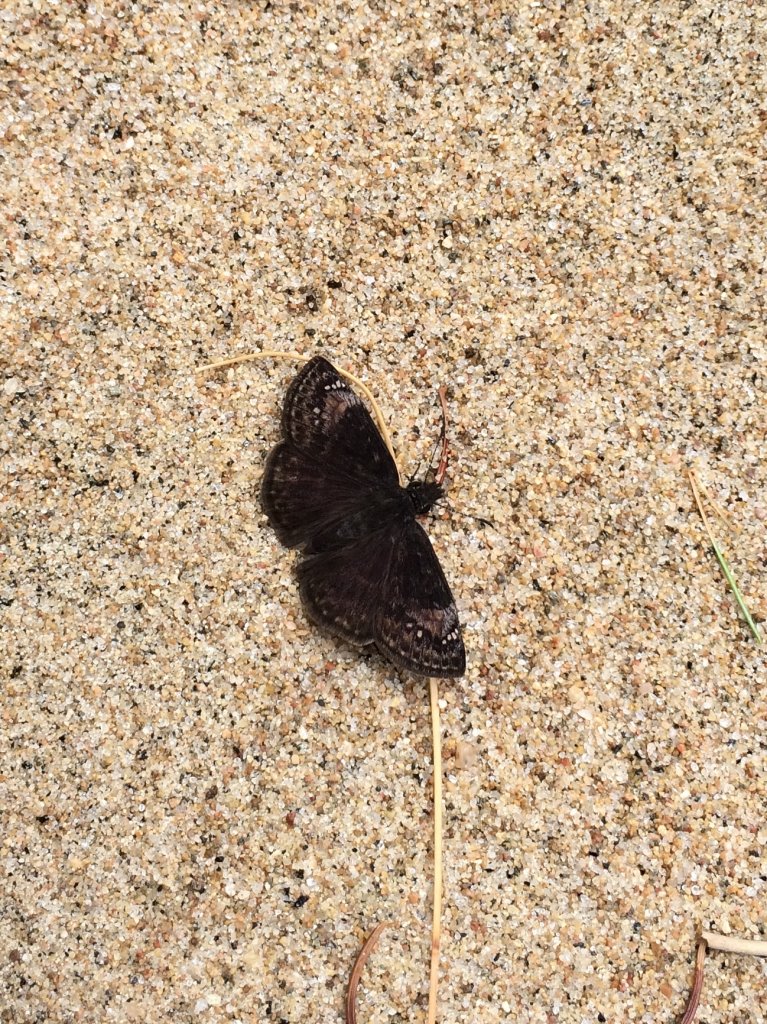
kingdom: Animalia
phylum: Arthropoda
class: Insecta
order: Lepidoptera
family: Hesperiidae
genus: Gesta
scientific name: Gesta
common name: Columbine Duskywing
